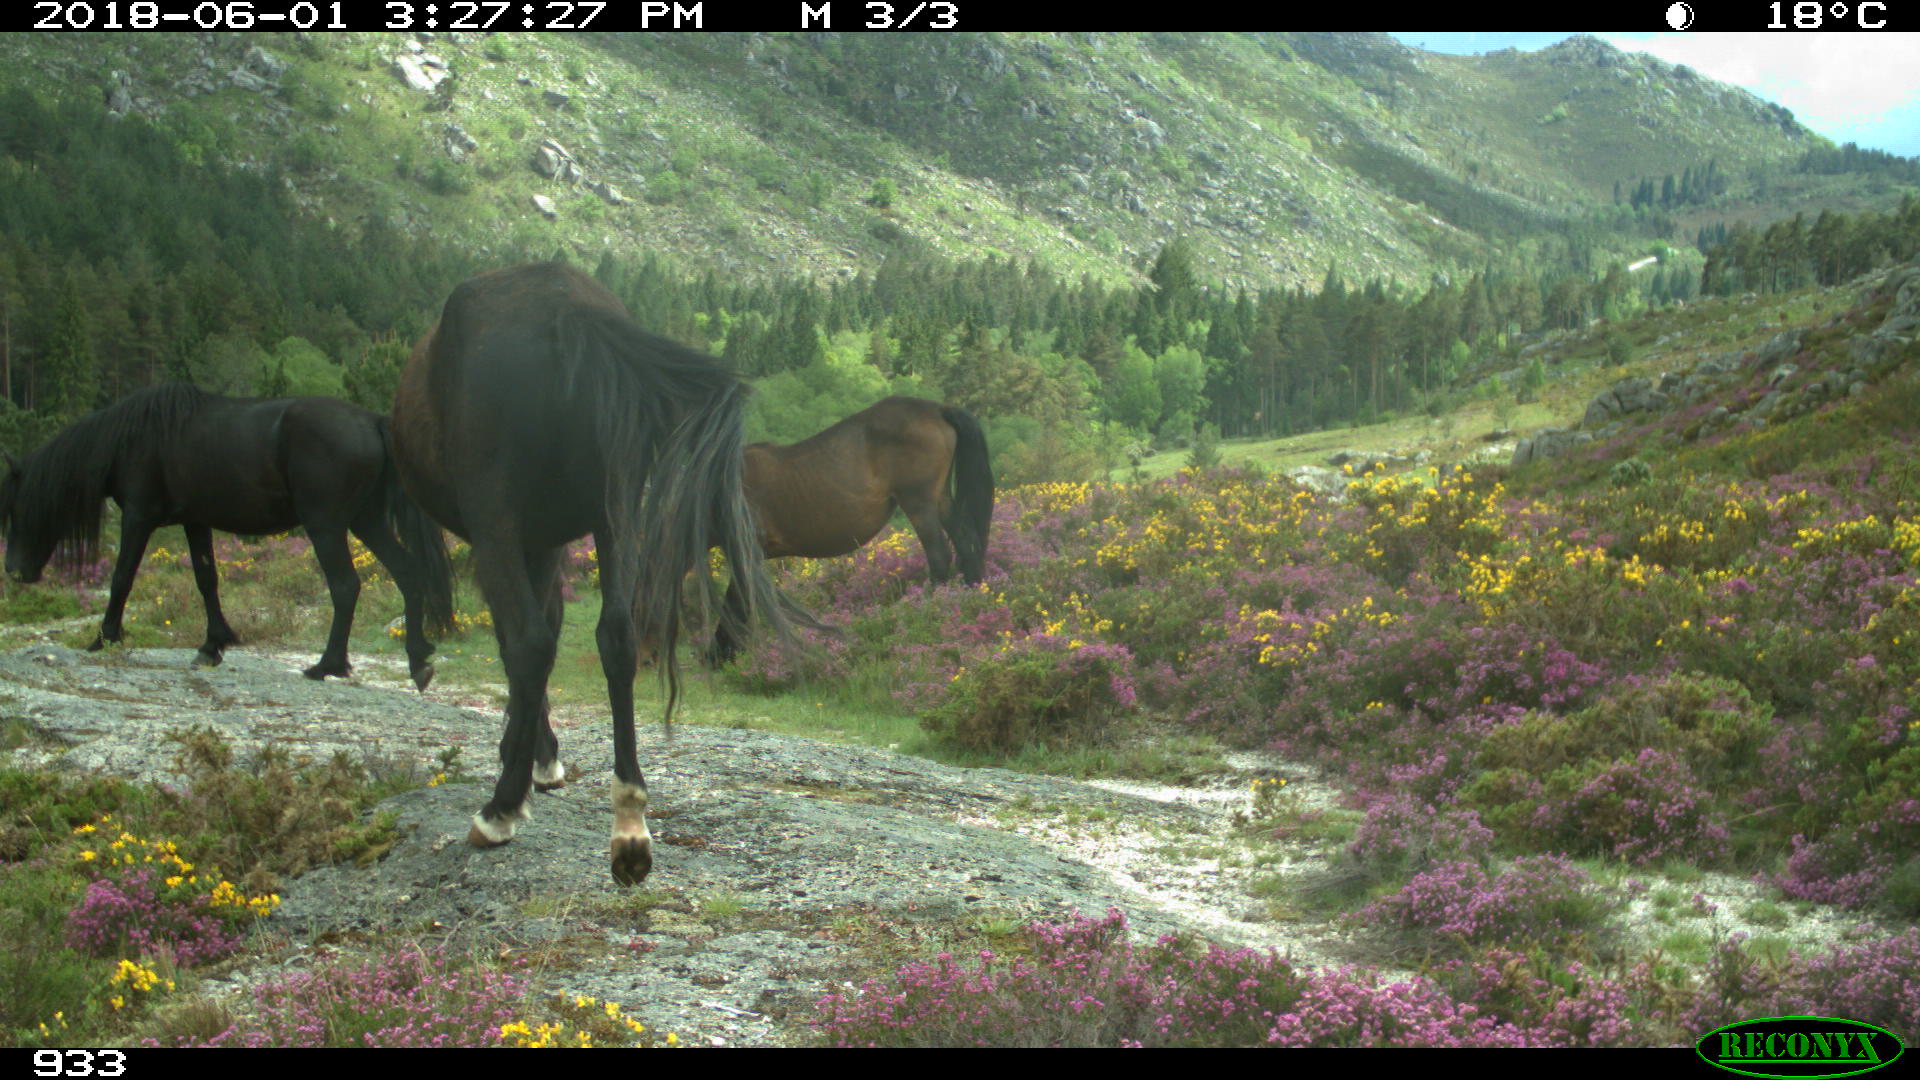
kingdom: Animalia
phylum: Chordata
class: Mammalia
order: Perissodactyla
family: Equidae
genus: Equus
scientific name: Equus caballus
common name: Horse
